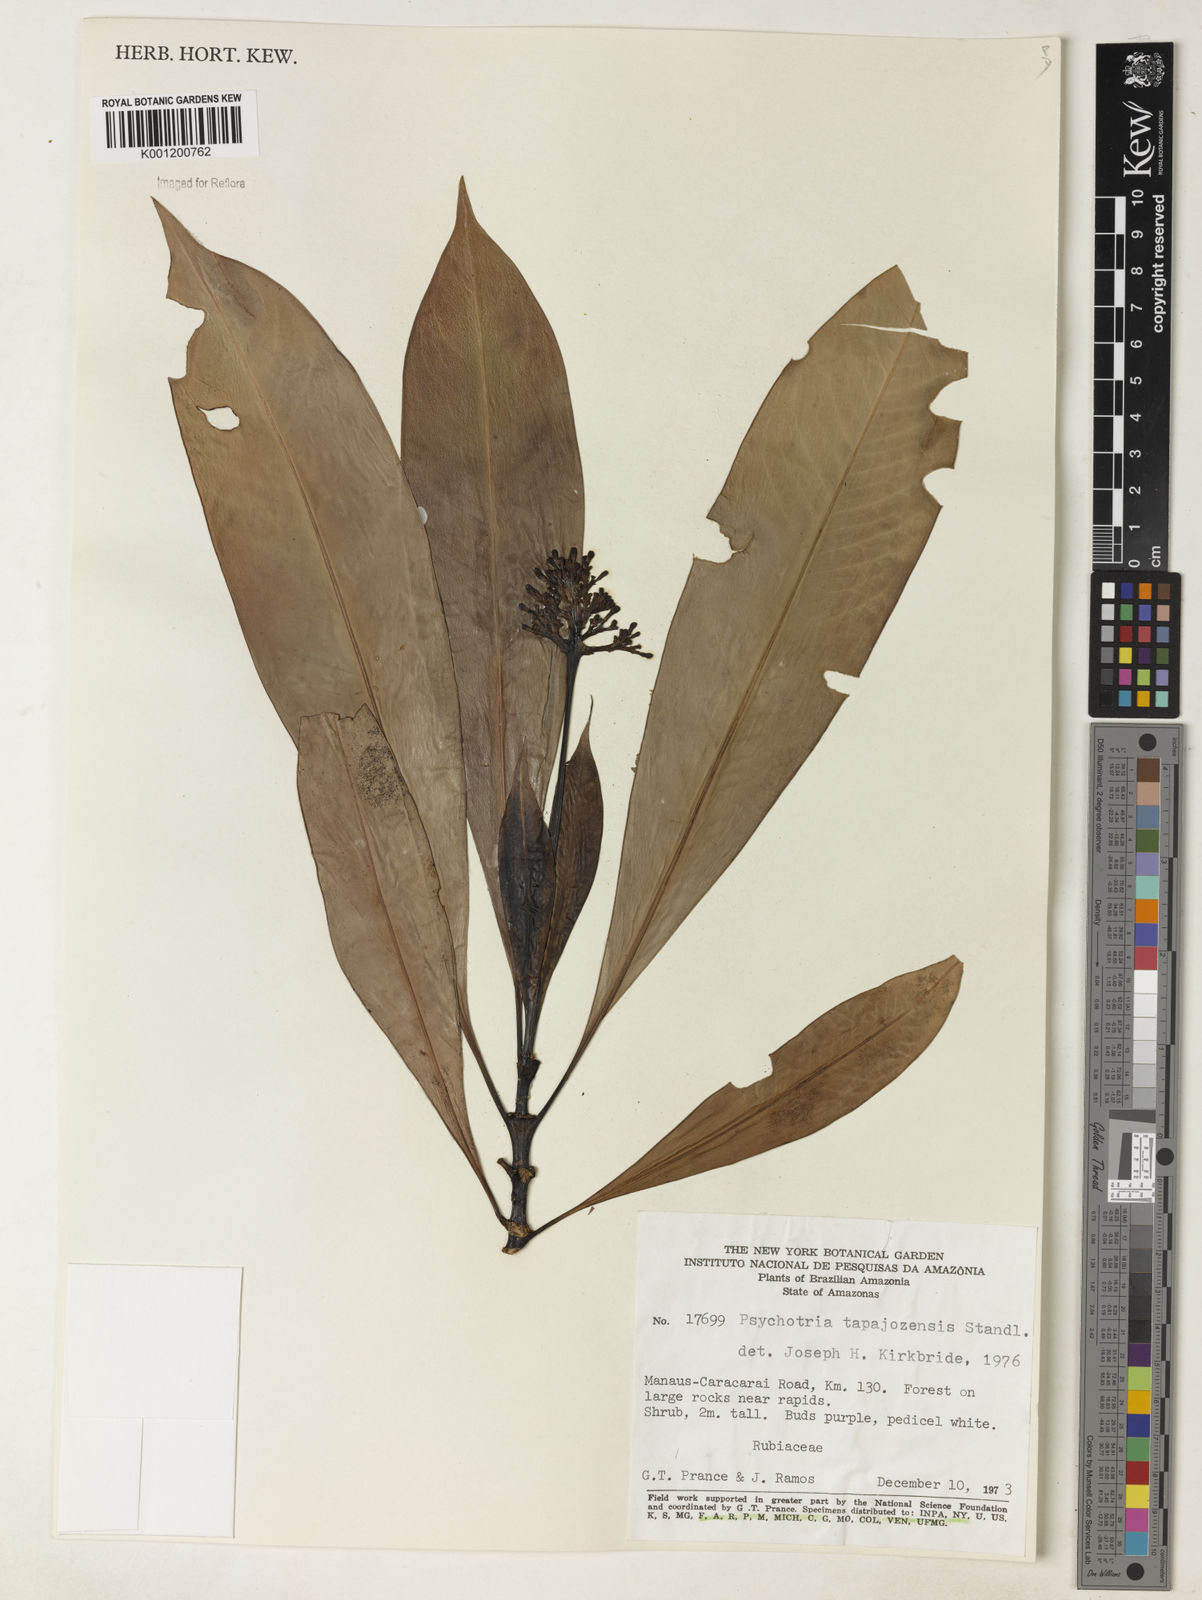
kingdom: Plantae
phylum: Tracheophyta
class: Magnoliopsida
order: Gentianales
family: Rubiaceae
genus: Notopleura
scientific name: Notopleura tapajozensis
